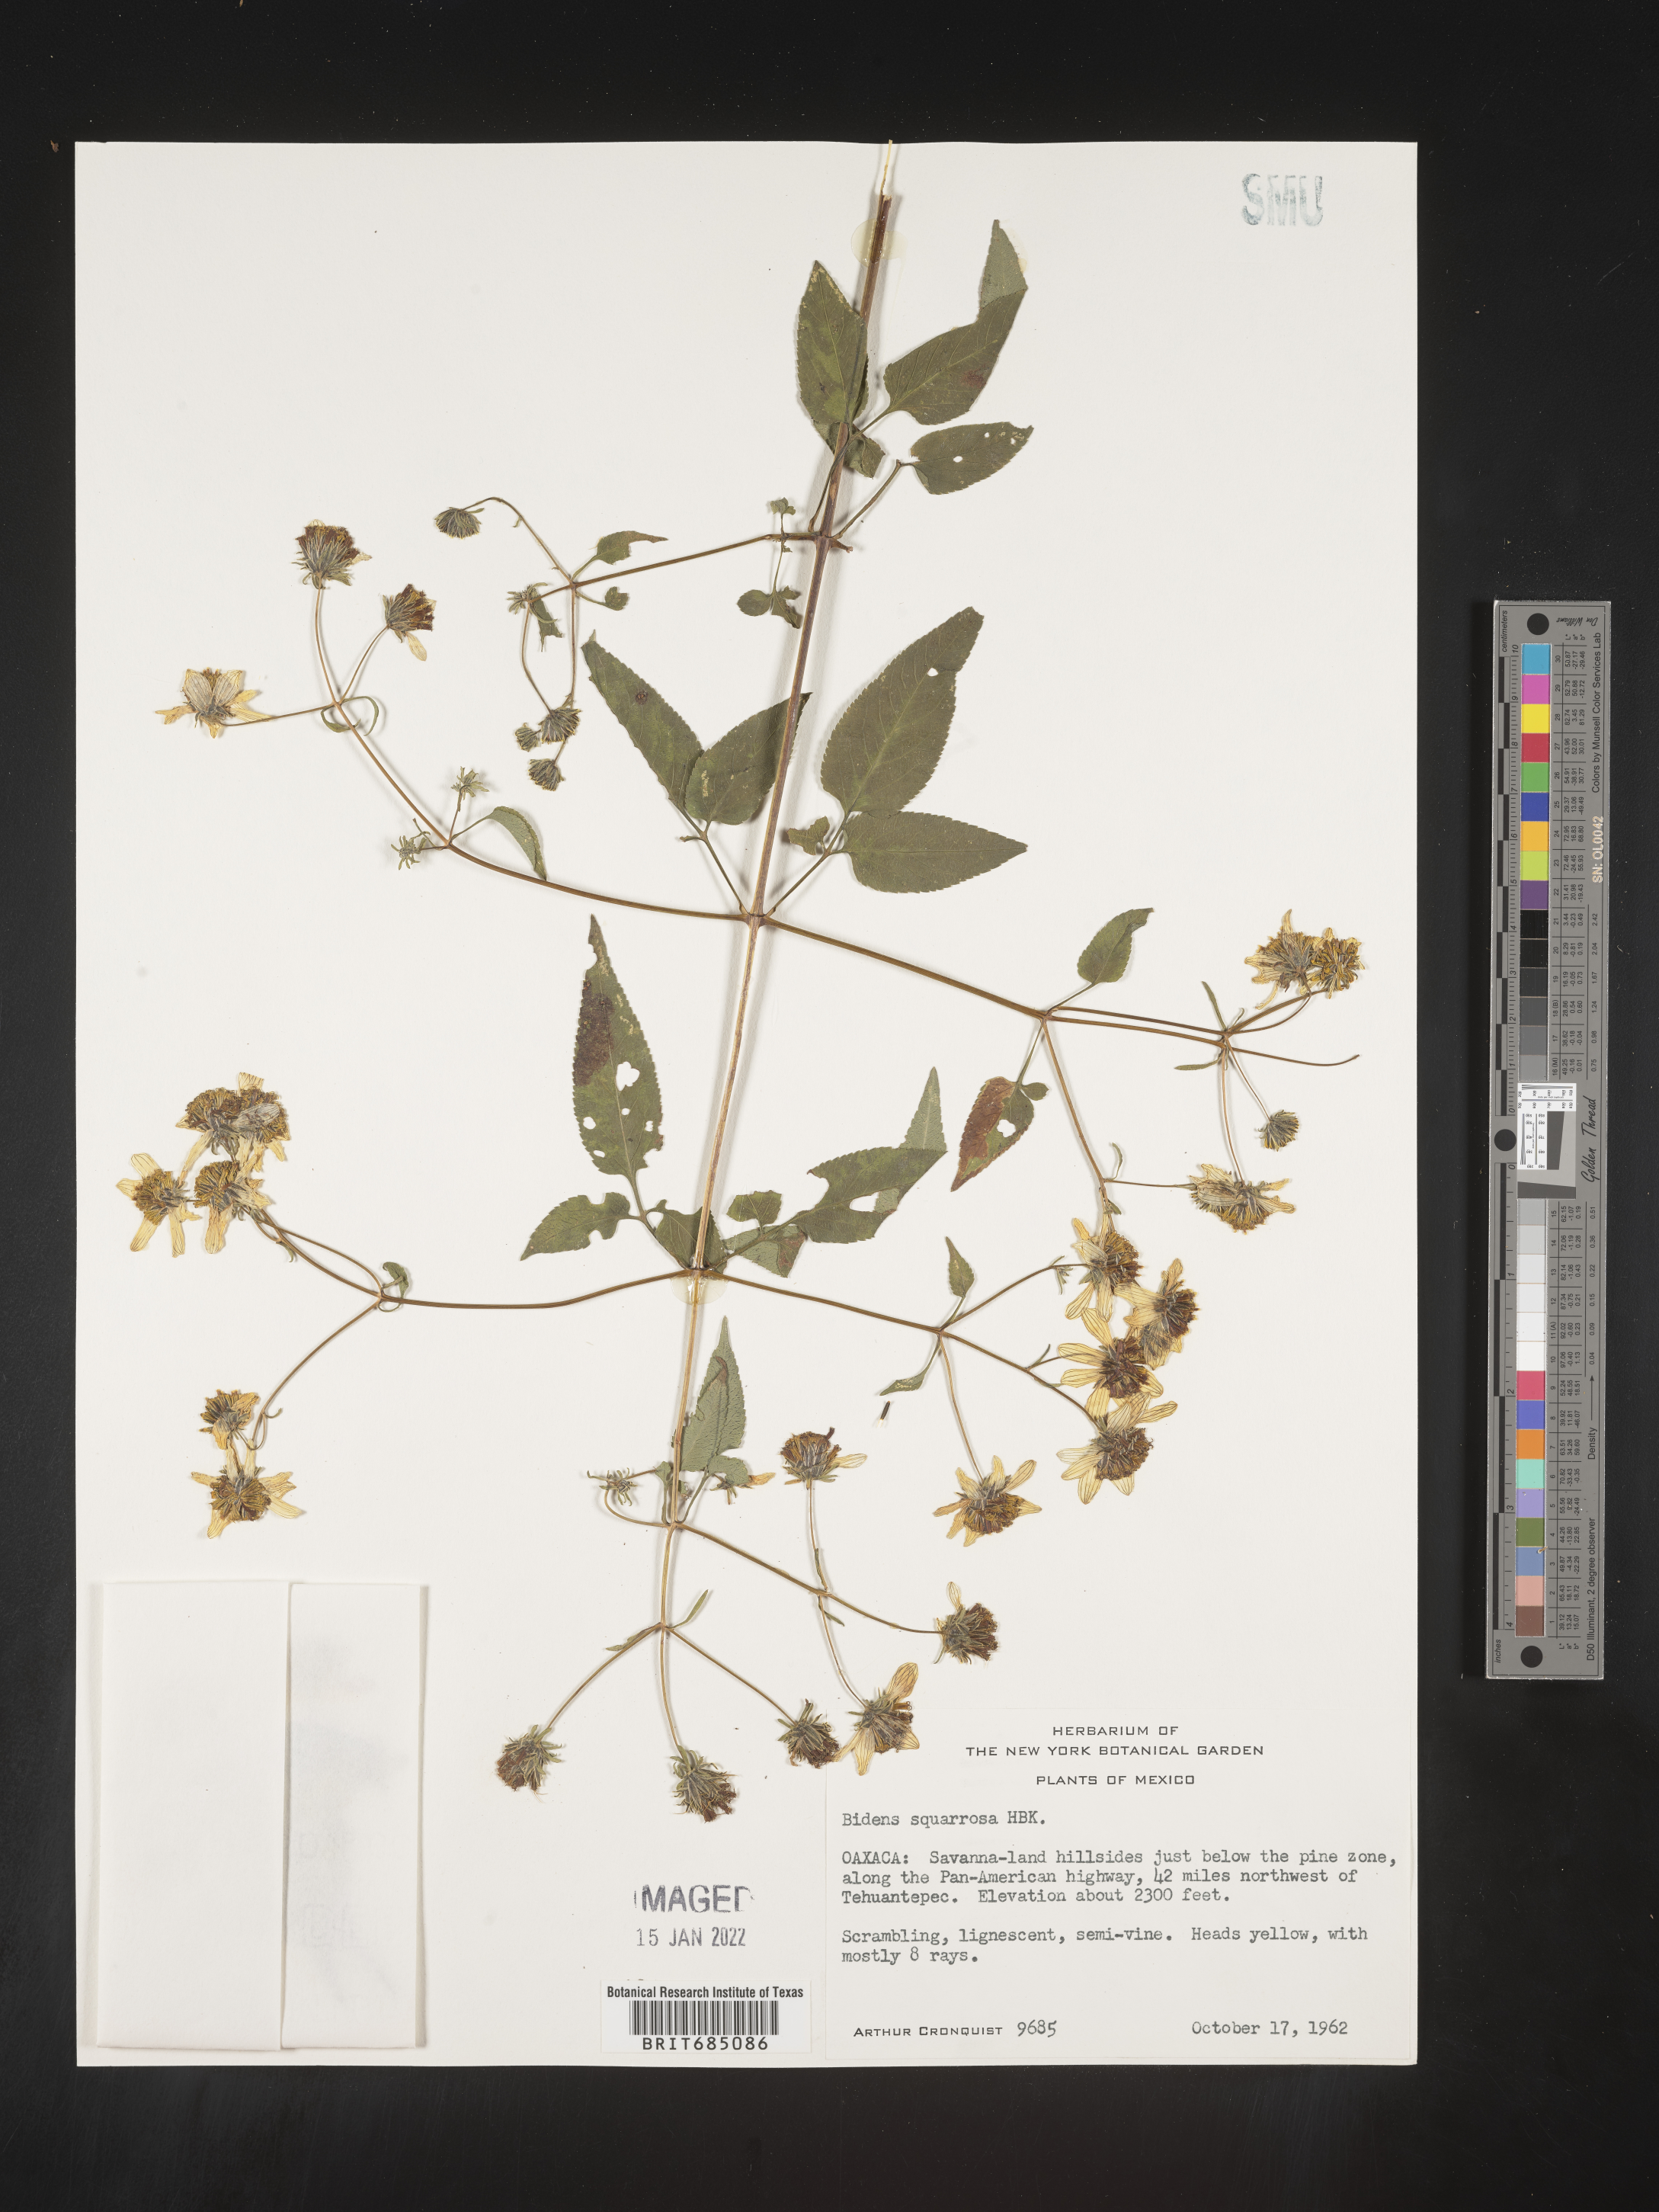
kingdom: Plantae
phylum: Tracheophyta
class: Magnoliopsida
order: Asterales
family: Asteraceae
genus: Bidens
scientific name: Bidens rubicundula
